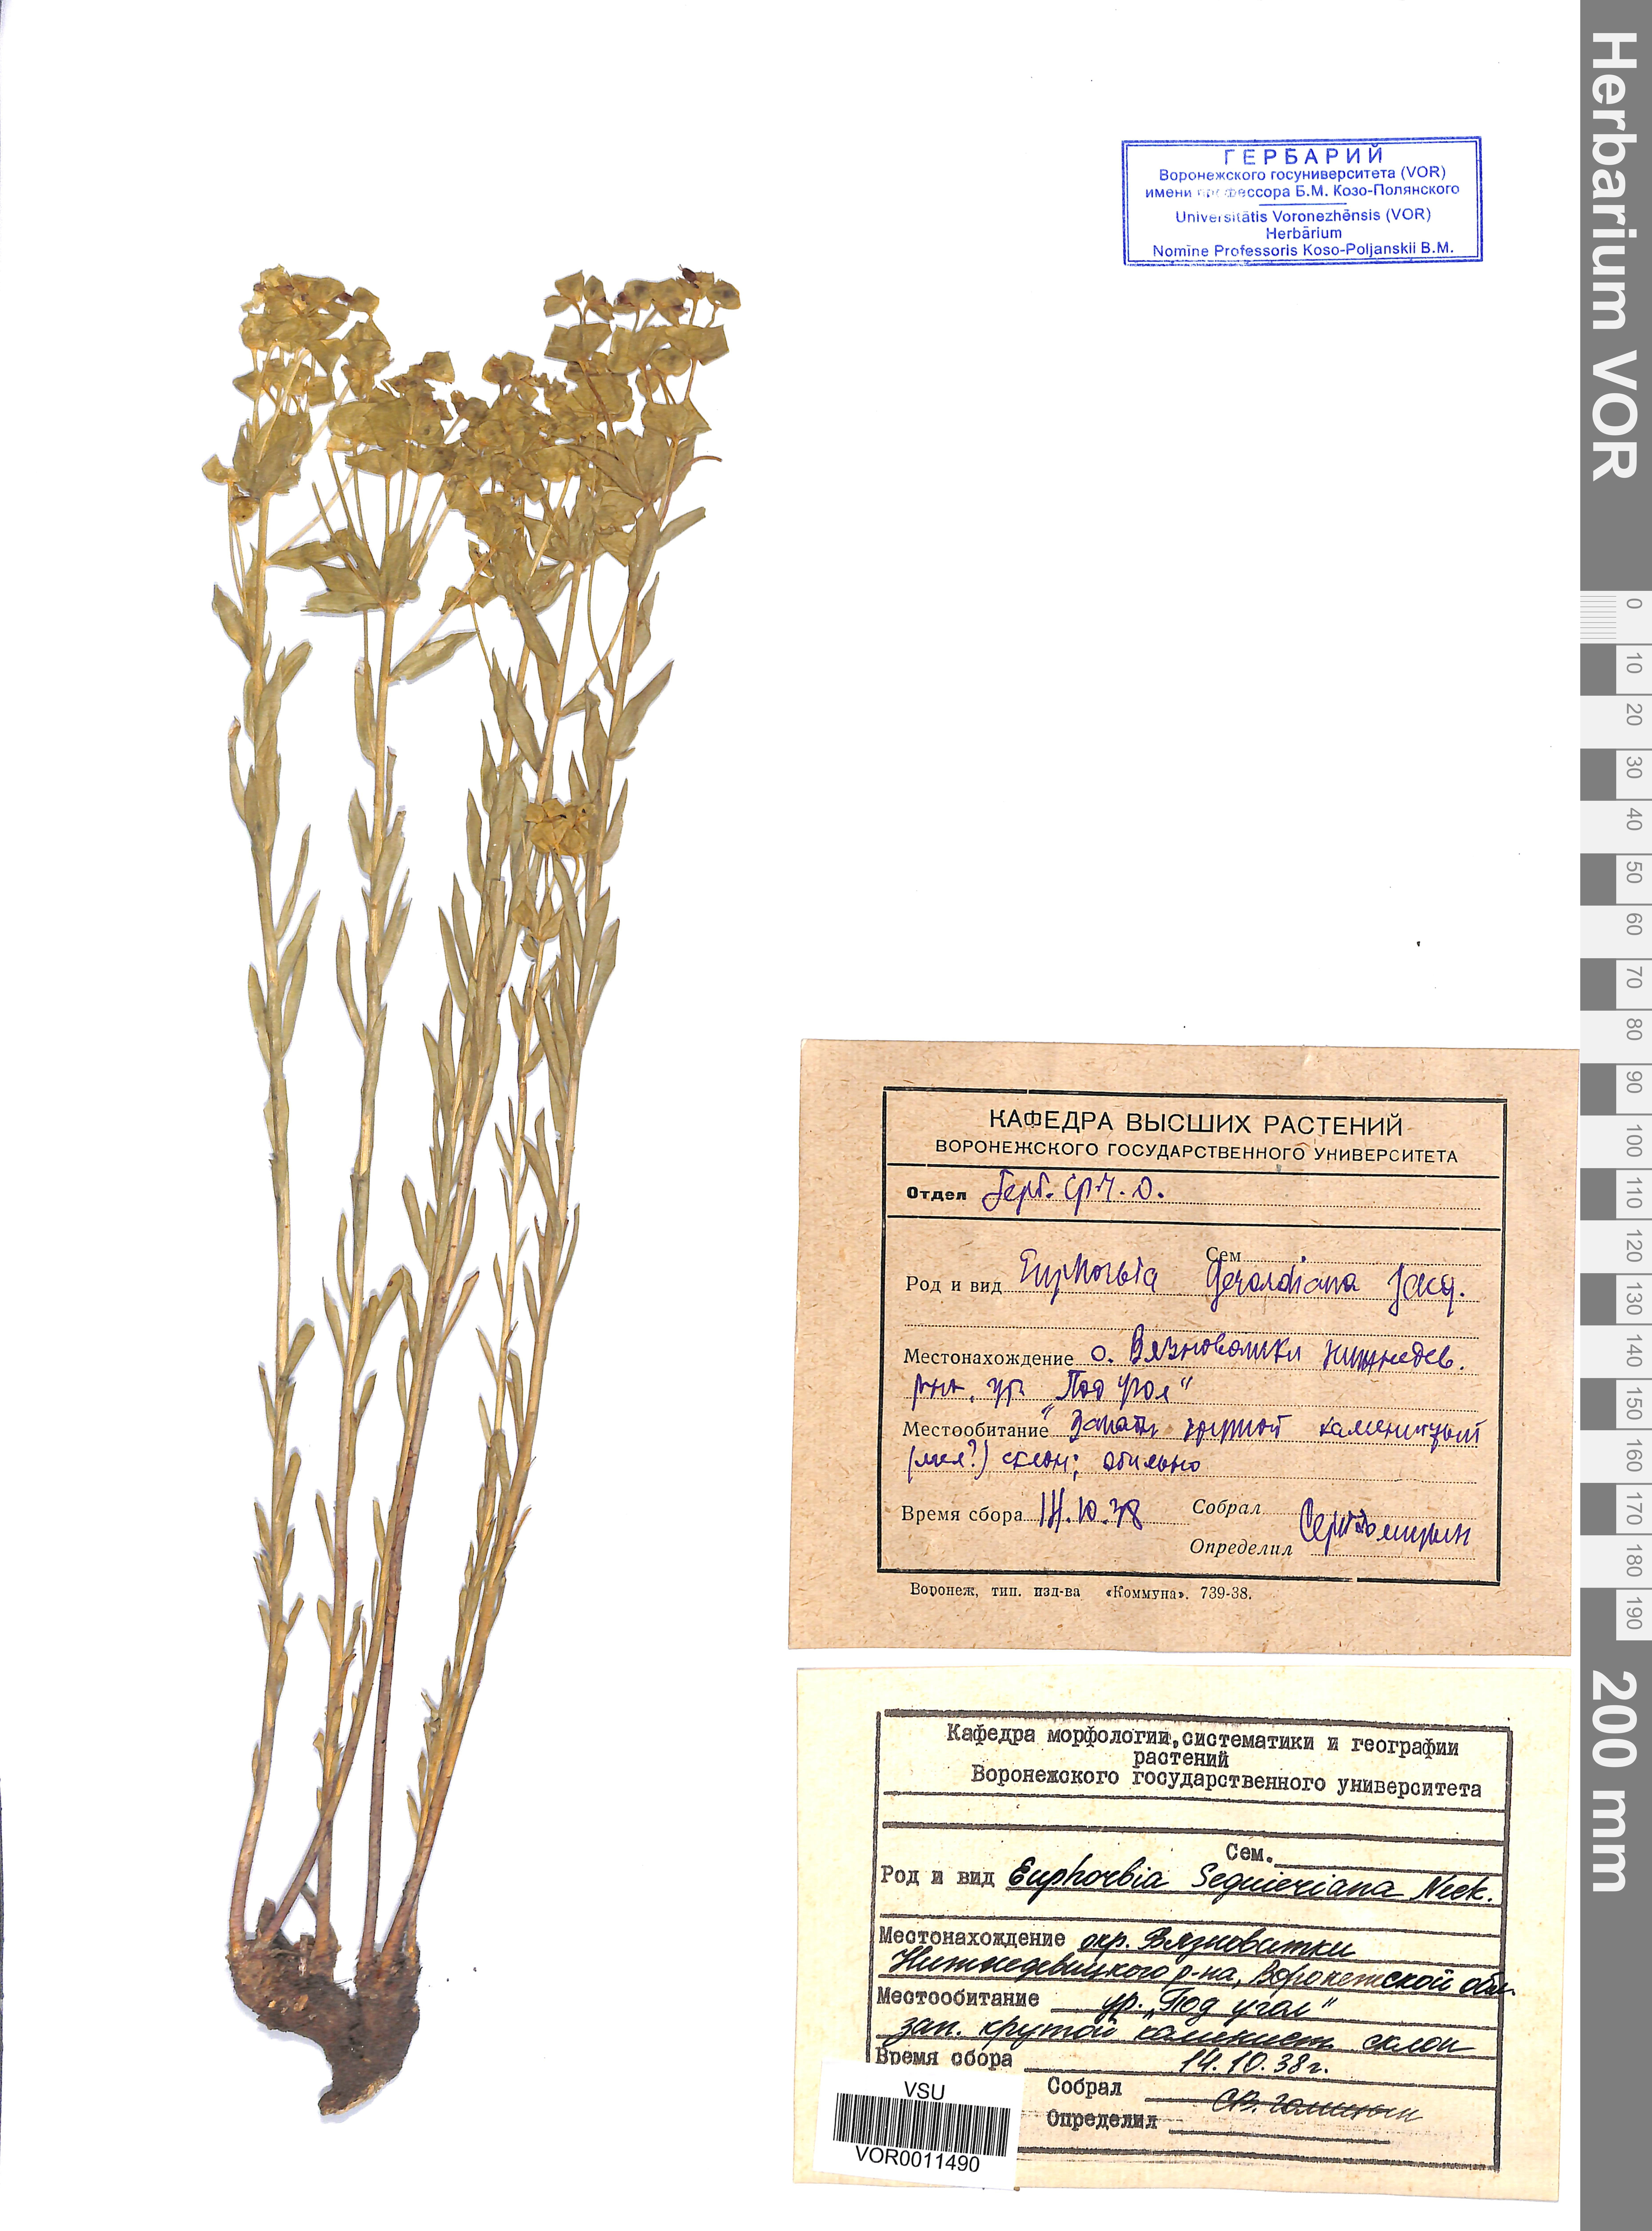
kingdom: Plantae
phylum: Tracheophyta
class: Magnoliopsida
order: Malpighiales
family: Euphorbiaceae
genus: Euphorbia
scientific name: Euphorbia seguieriana
